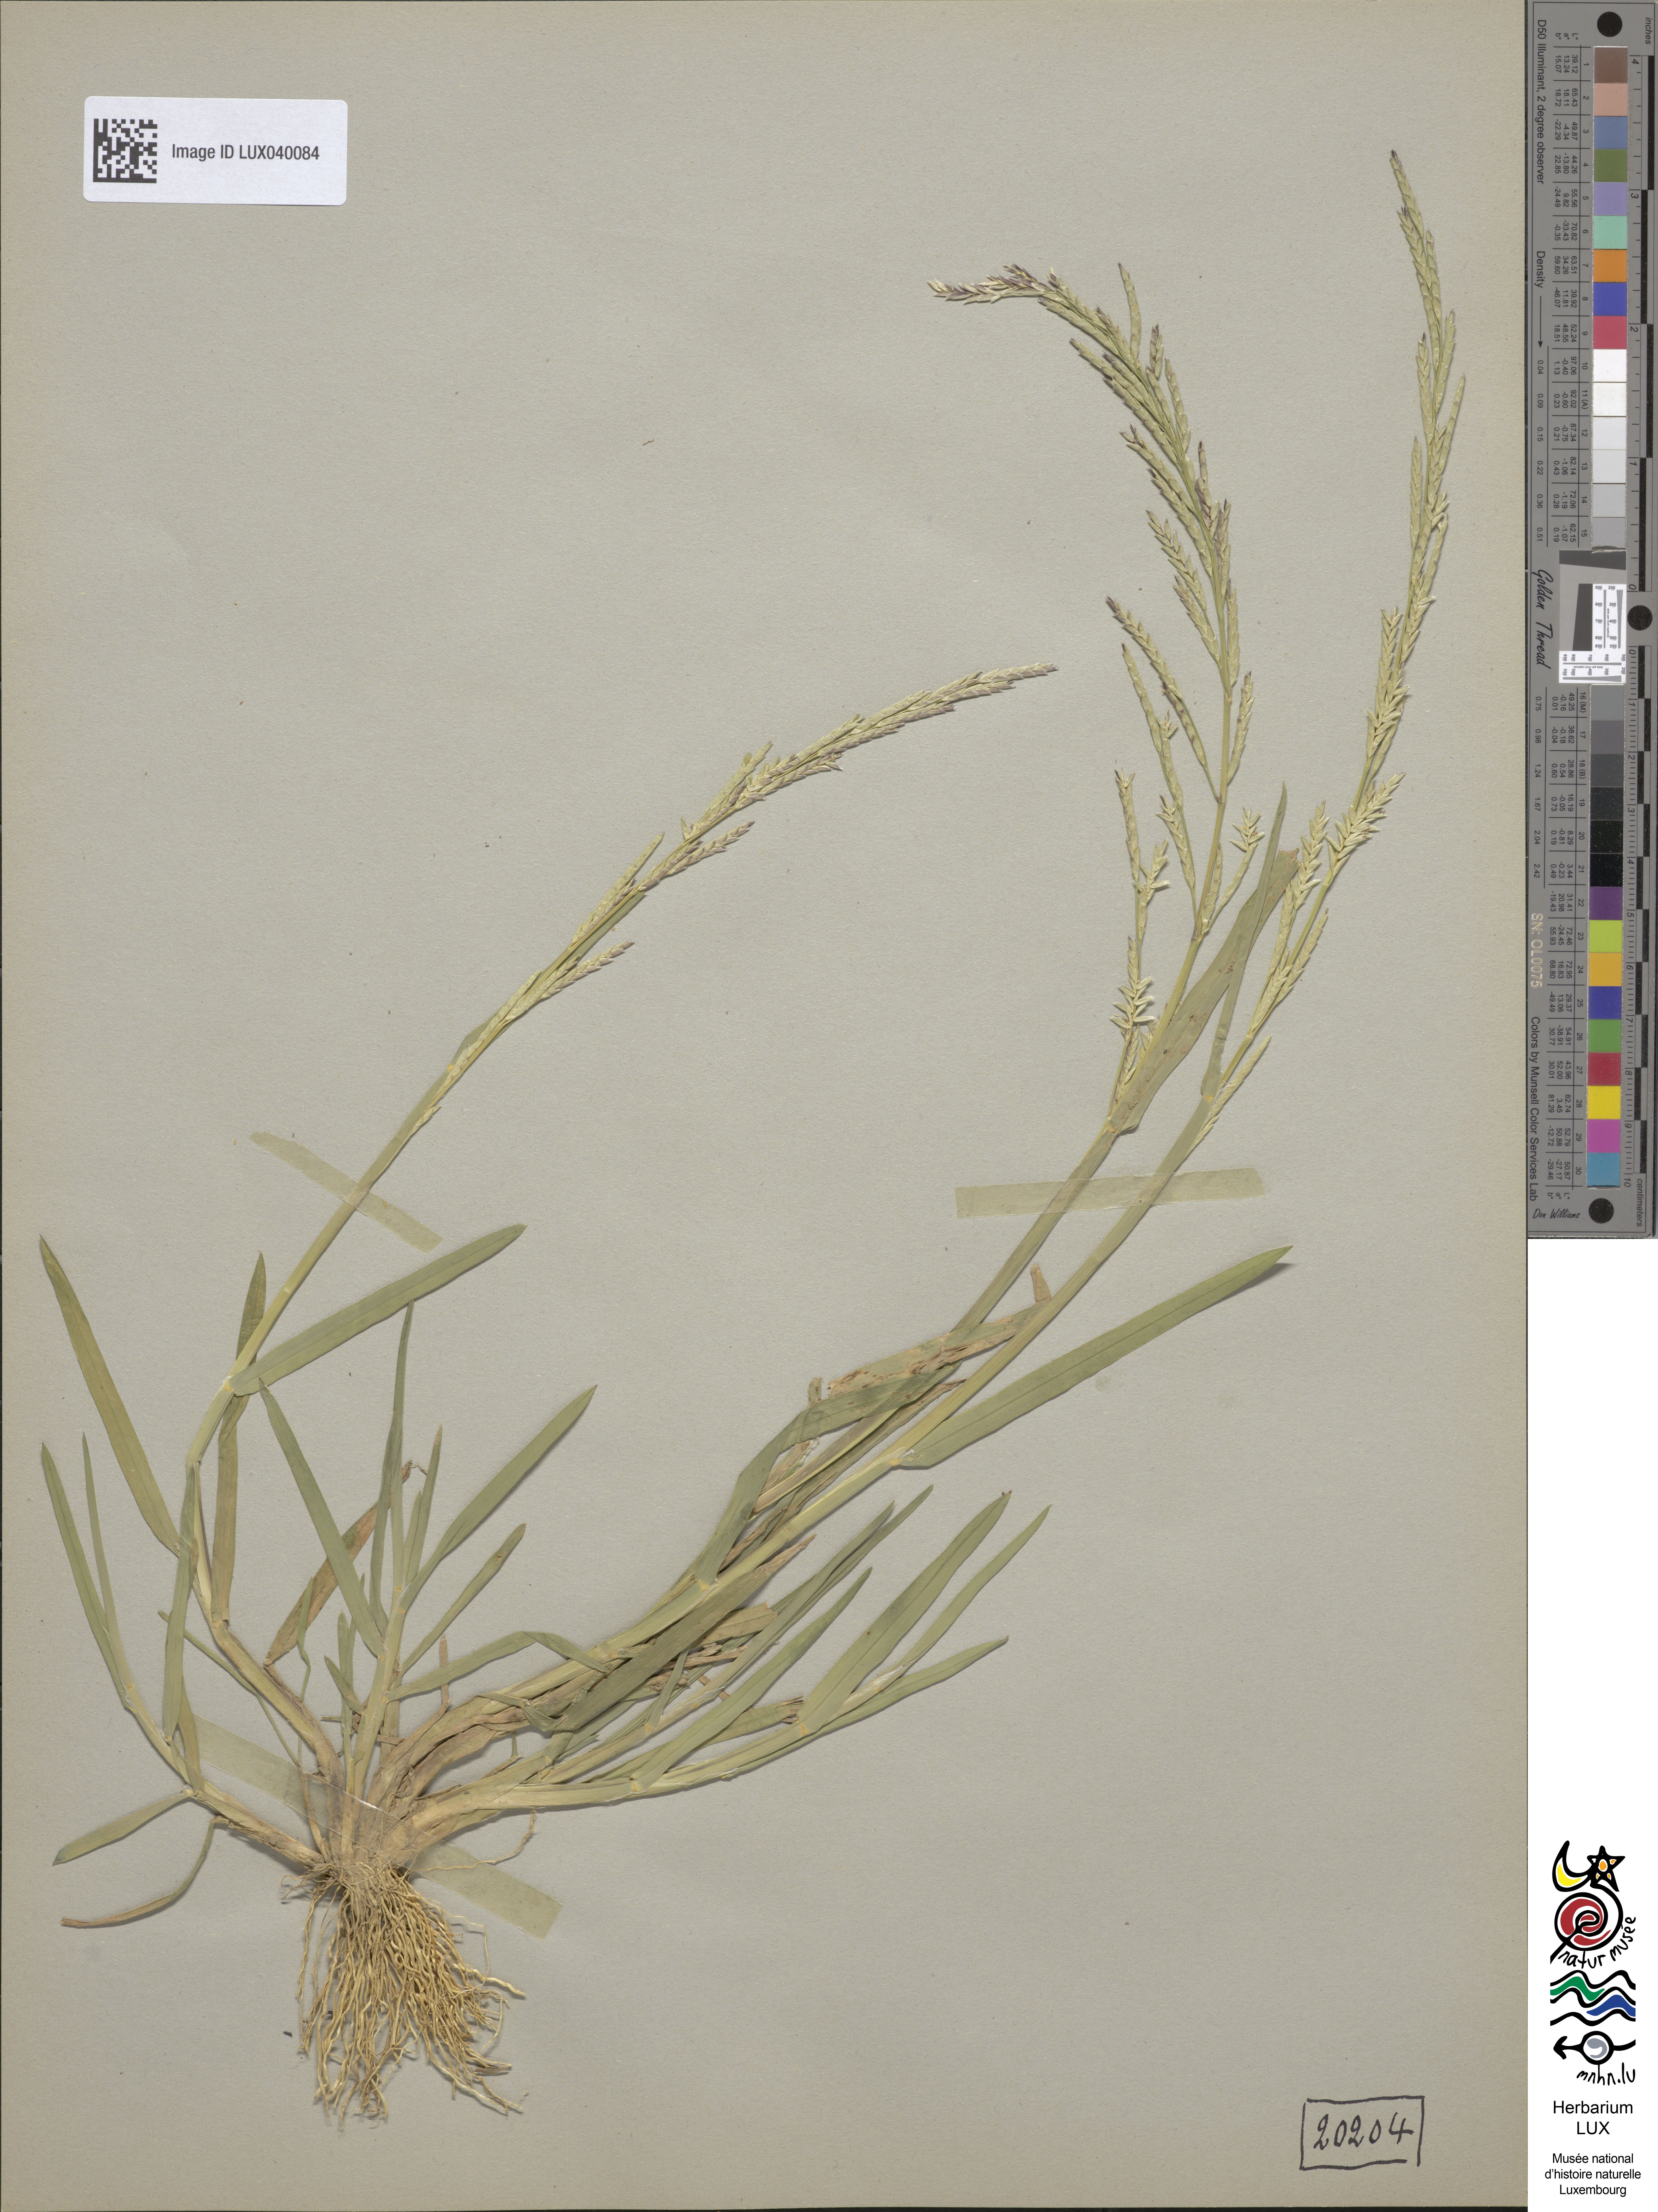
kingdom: Plantae
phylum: Tracheophyta
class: Liliopsida
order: Poales
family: Poaceae
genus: Glyceria
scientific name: Glyceria declinata
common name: Small sweet-grass
